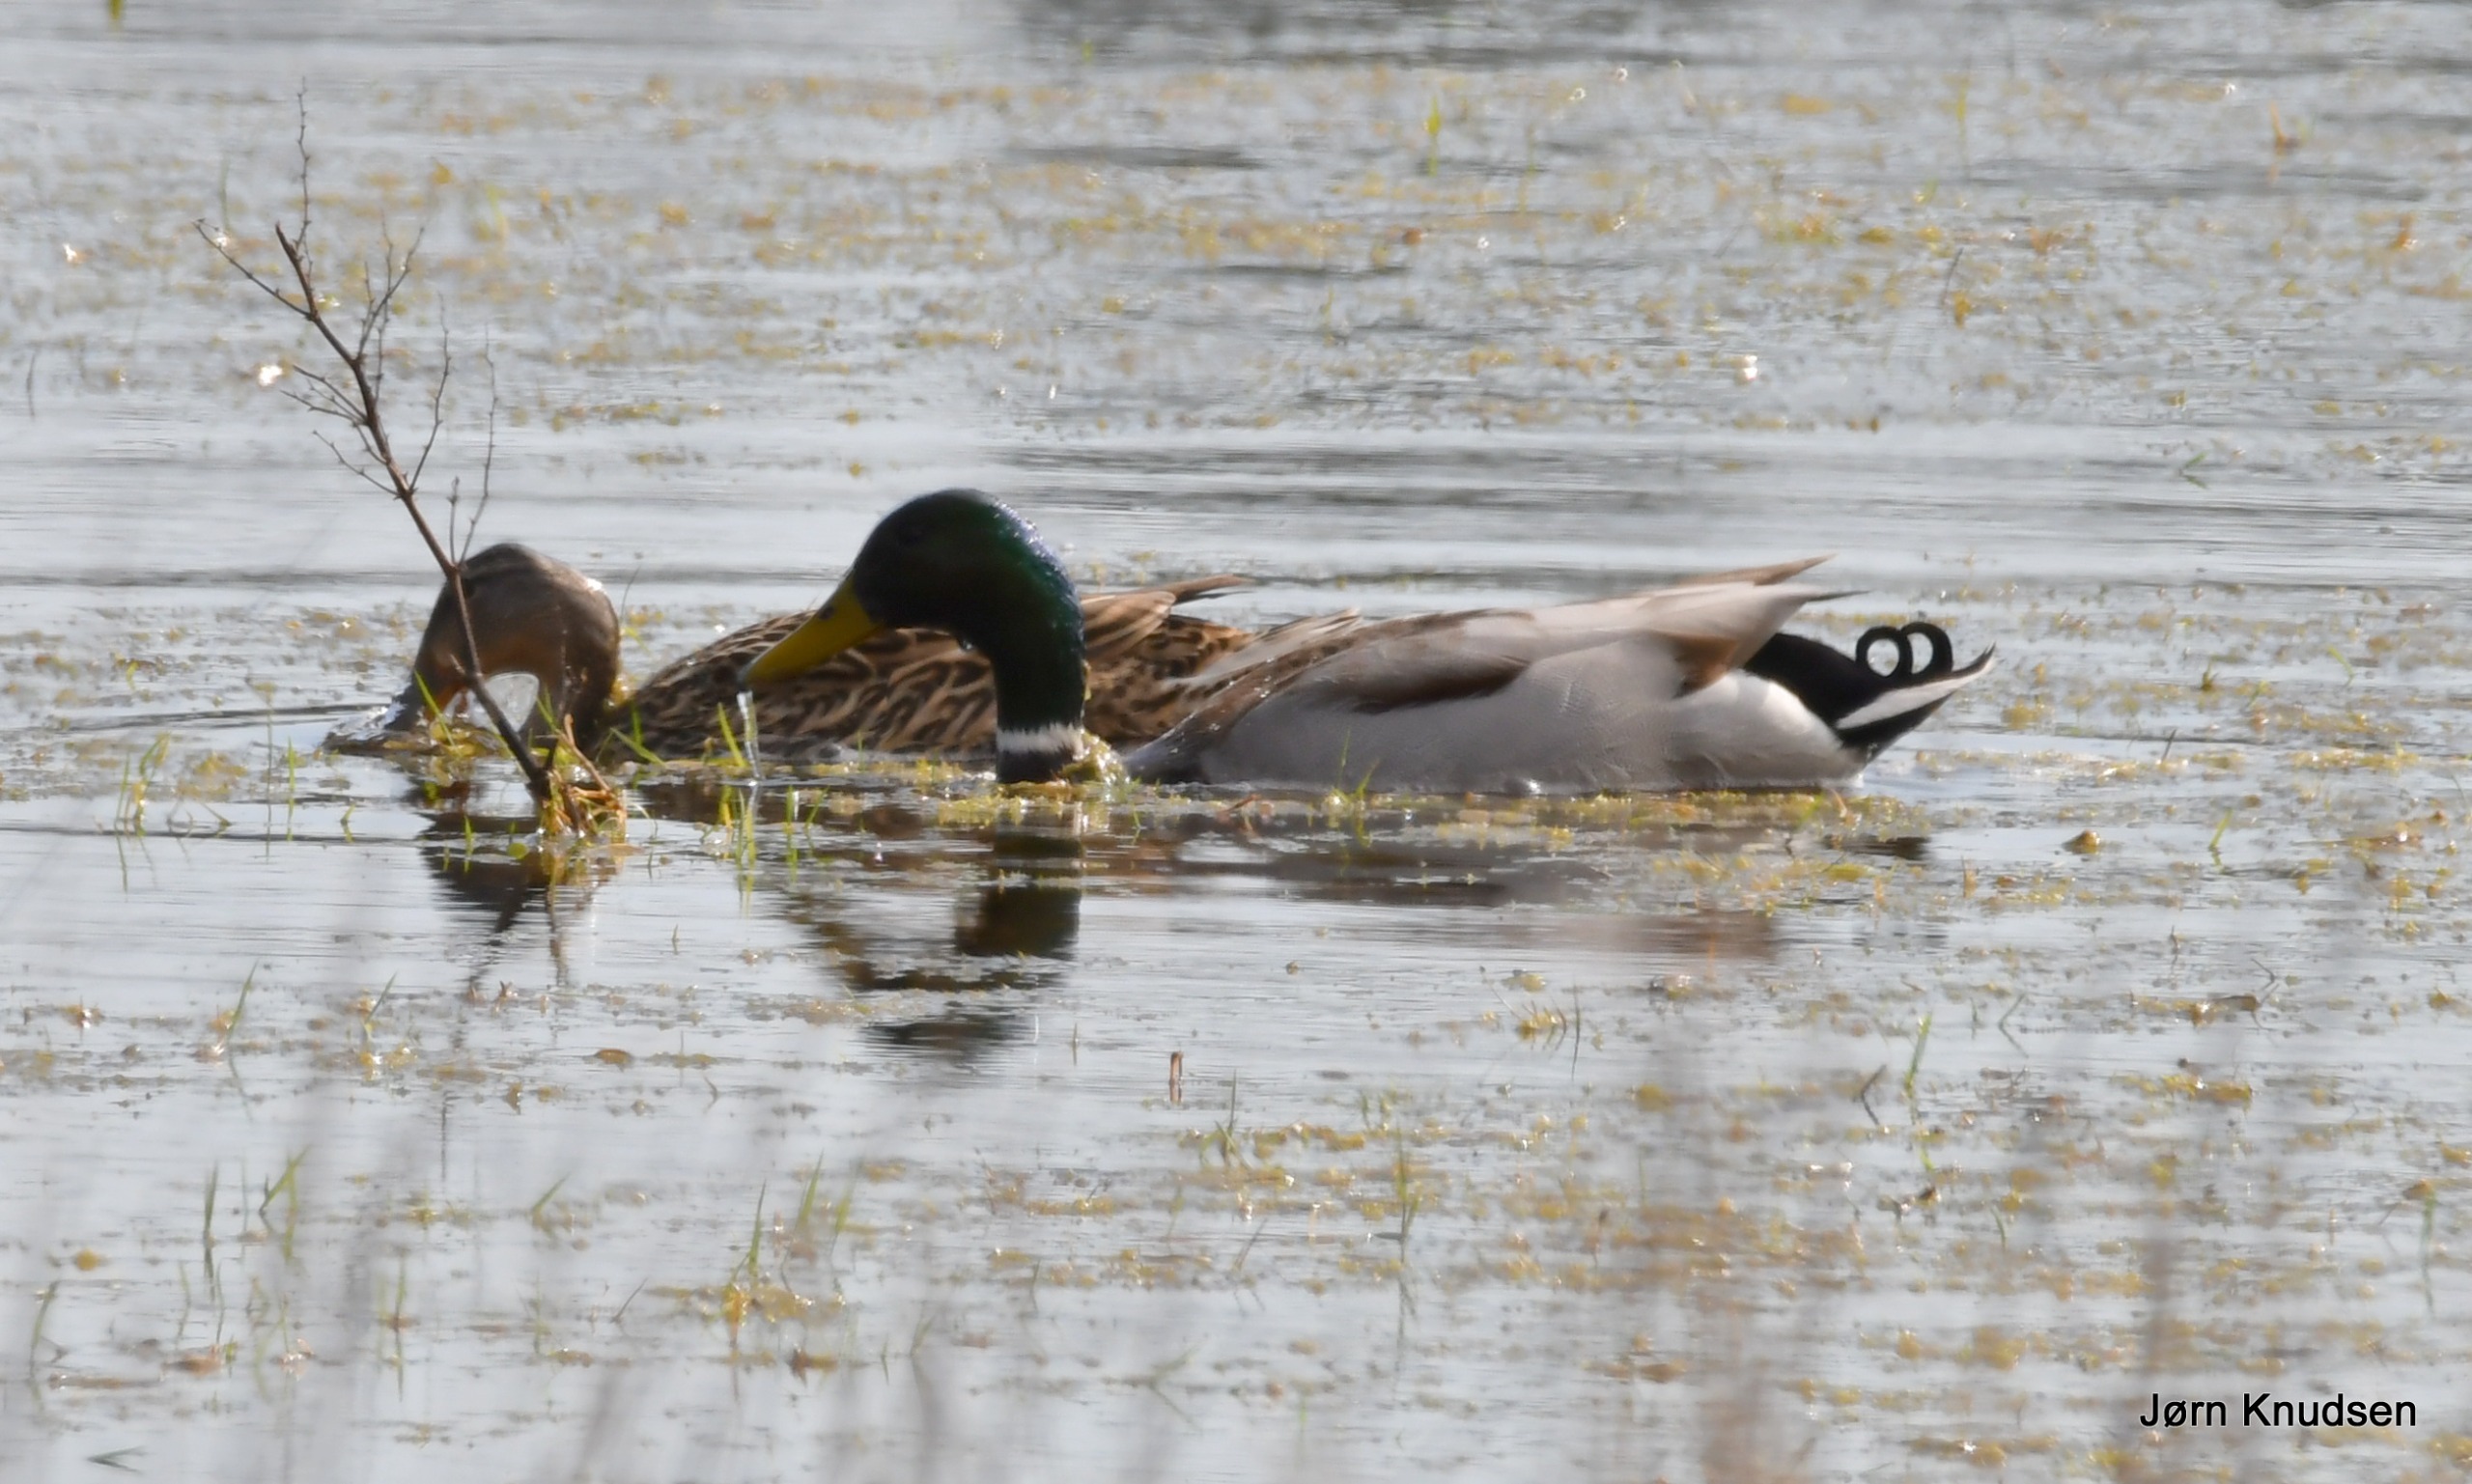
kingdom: Animalia
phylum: Chordata
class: Aves
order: Anseriformes
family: Anatidae
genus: Anas
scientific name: Anas platyrhynchos
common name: Gråand
